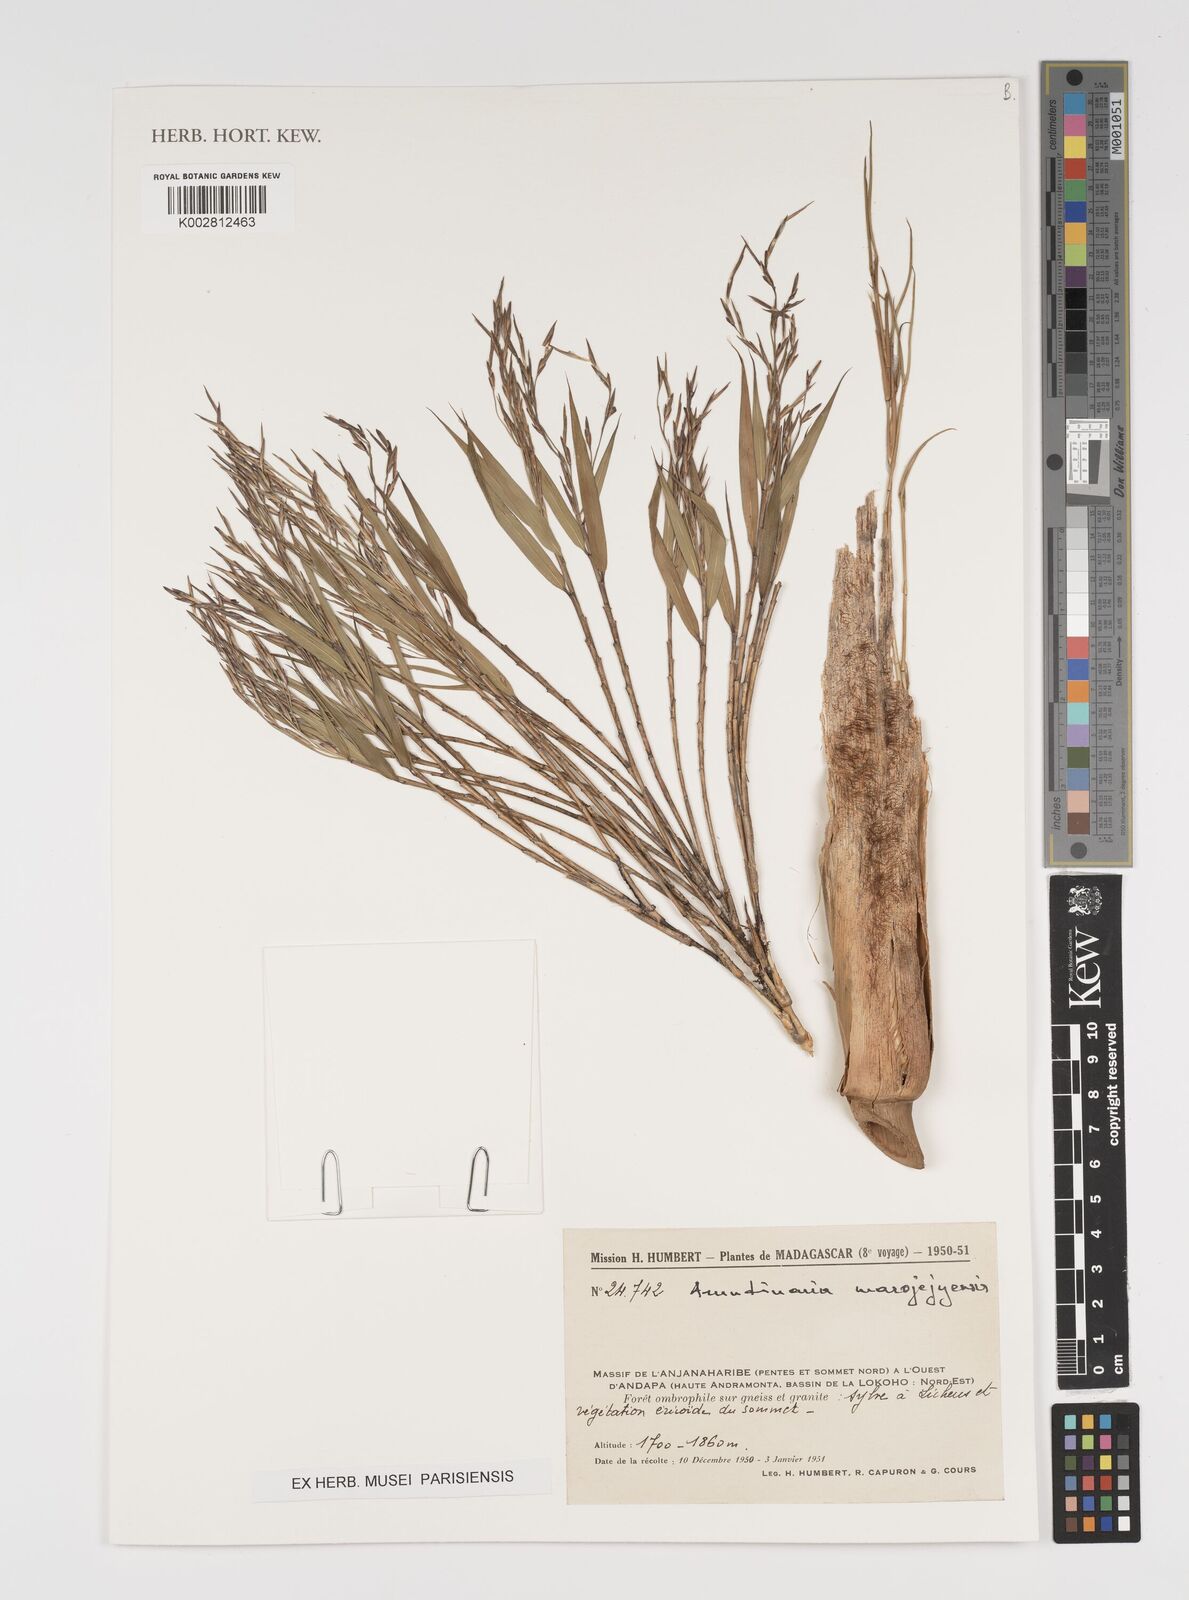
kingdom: Plantae
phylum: Tracheophyta
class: Liliopsida
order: Poales
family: Poaceae
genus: Oldeania
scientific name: Oldeania madagascariensis
